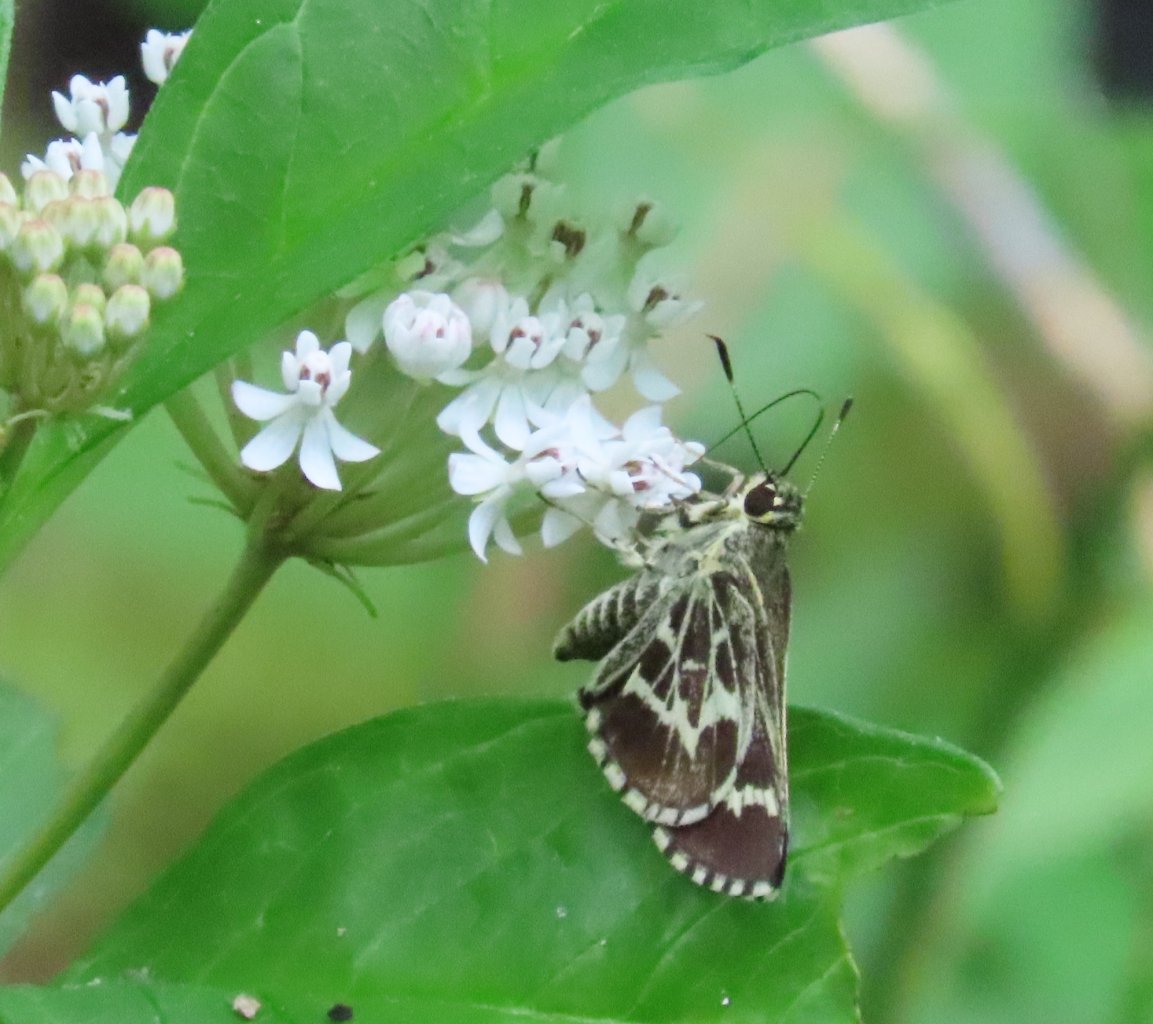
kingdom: Animalia
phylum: Arthropoda
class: Insecta
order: Lepidoptera
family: Hesperiidae
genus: Mastor
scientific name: Mastor aesculapius
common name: Lace-winged Roadside-Skipper
